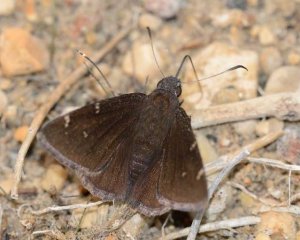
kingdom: Animalia
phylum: Arthropoda
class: Insecta
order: Lepidoptera
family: Hesperiidae
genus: Autochton
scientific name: Autochton
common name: Northern Cloudywing
